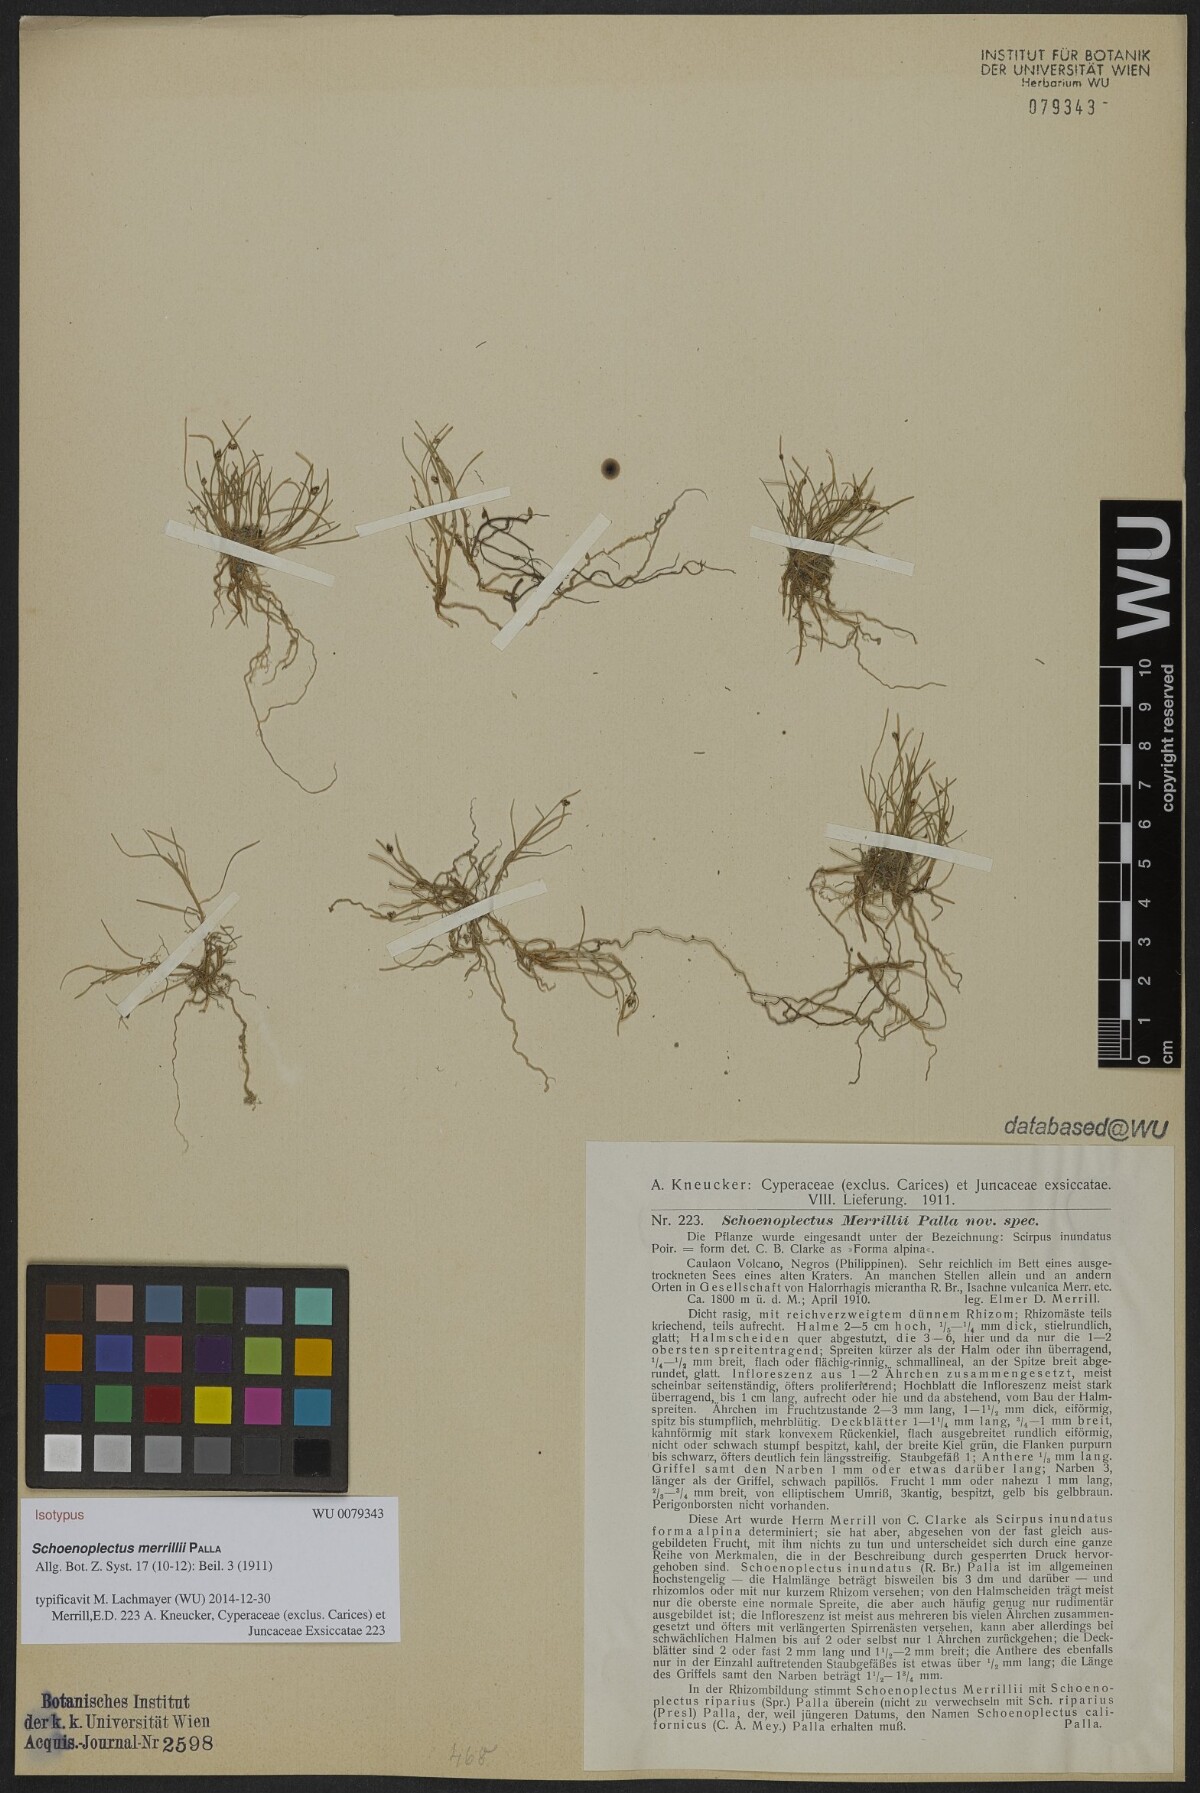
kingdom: Plantae
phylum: Tracheophyta
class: Liliopsida
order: Poales
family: Cyperaceae
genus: Isolepis
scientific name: Isolepis subtilissima
